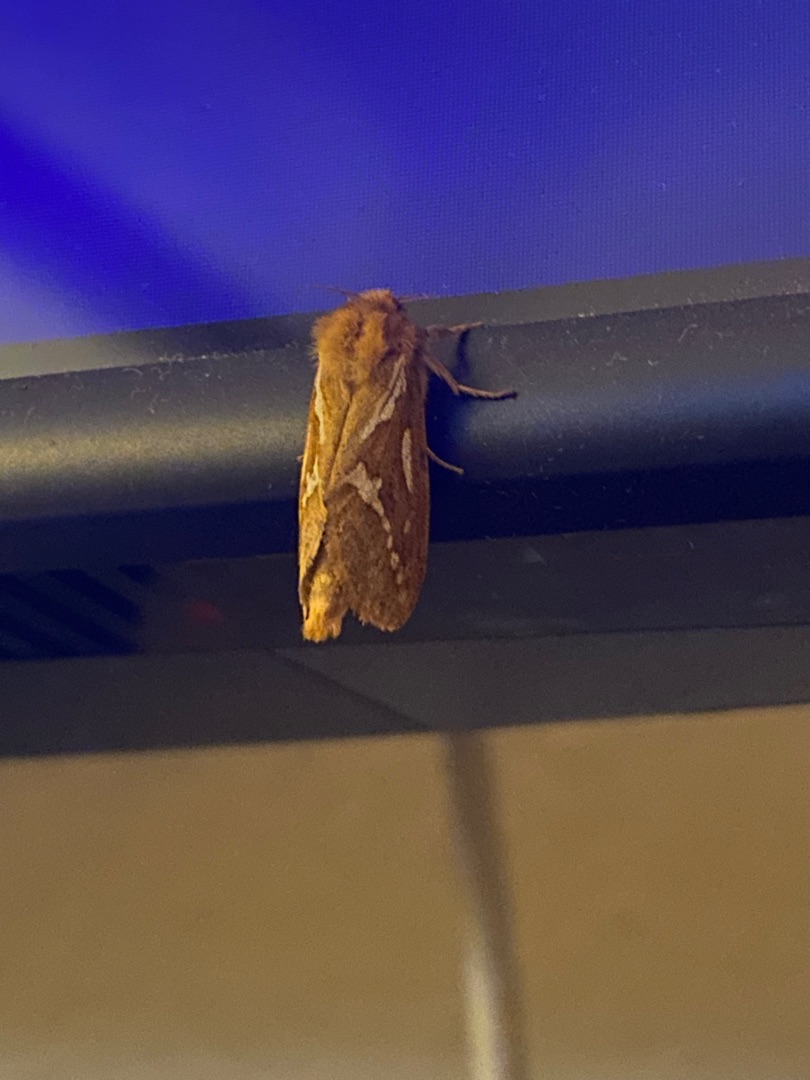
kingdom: Animalia
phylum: Arthropoda
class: Insecta
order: Lepidoptera
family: Hepialidae
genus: Korscheltellus
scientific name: Korscheltellus lupulina
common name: Konvalrodæder
